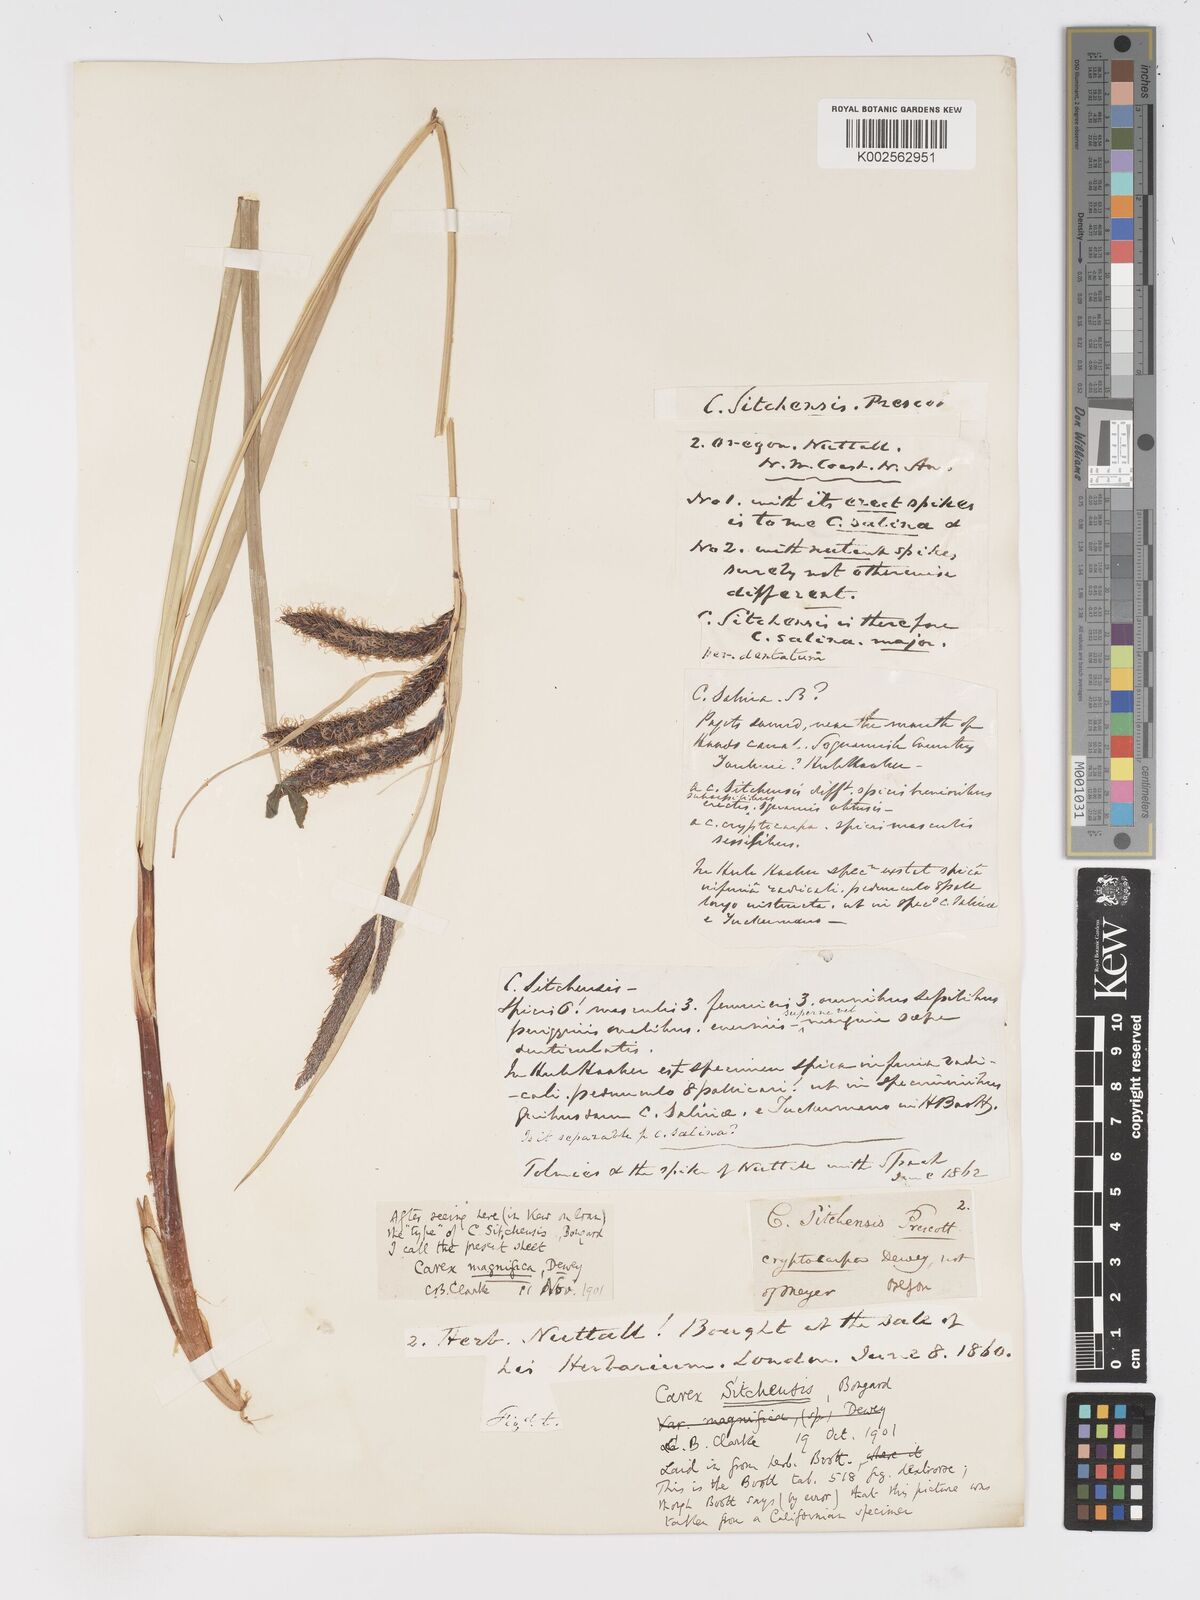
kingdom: Plantae
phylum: Tracheophyta
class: Liliopsida
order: Poales
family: Cyperaceae
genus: Carex
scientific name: Carex obnupta
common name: Slough sedge
